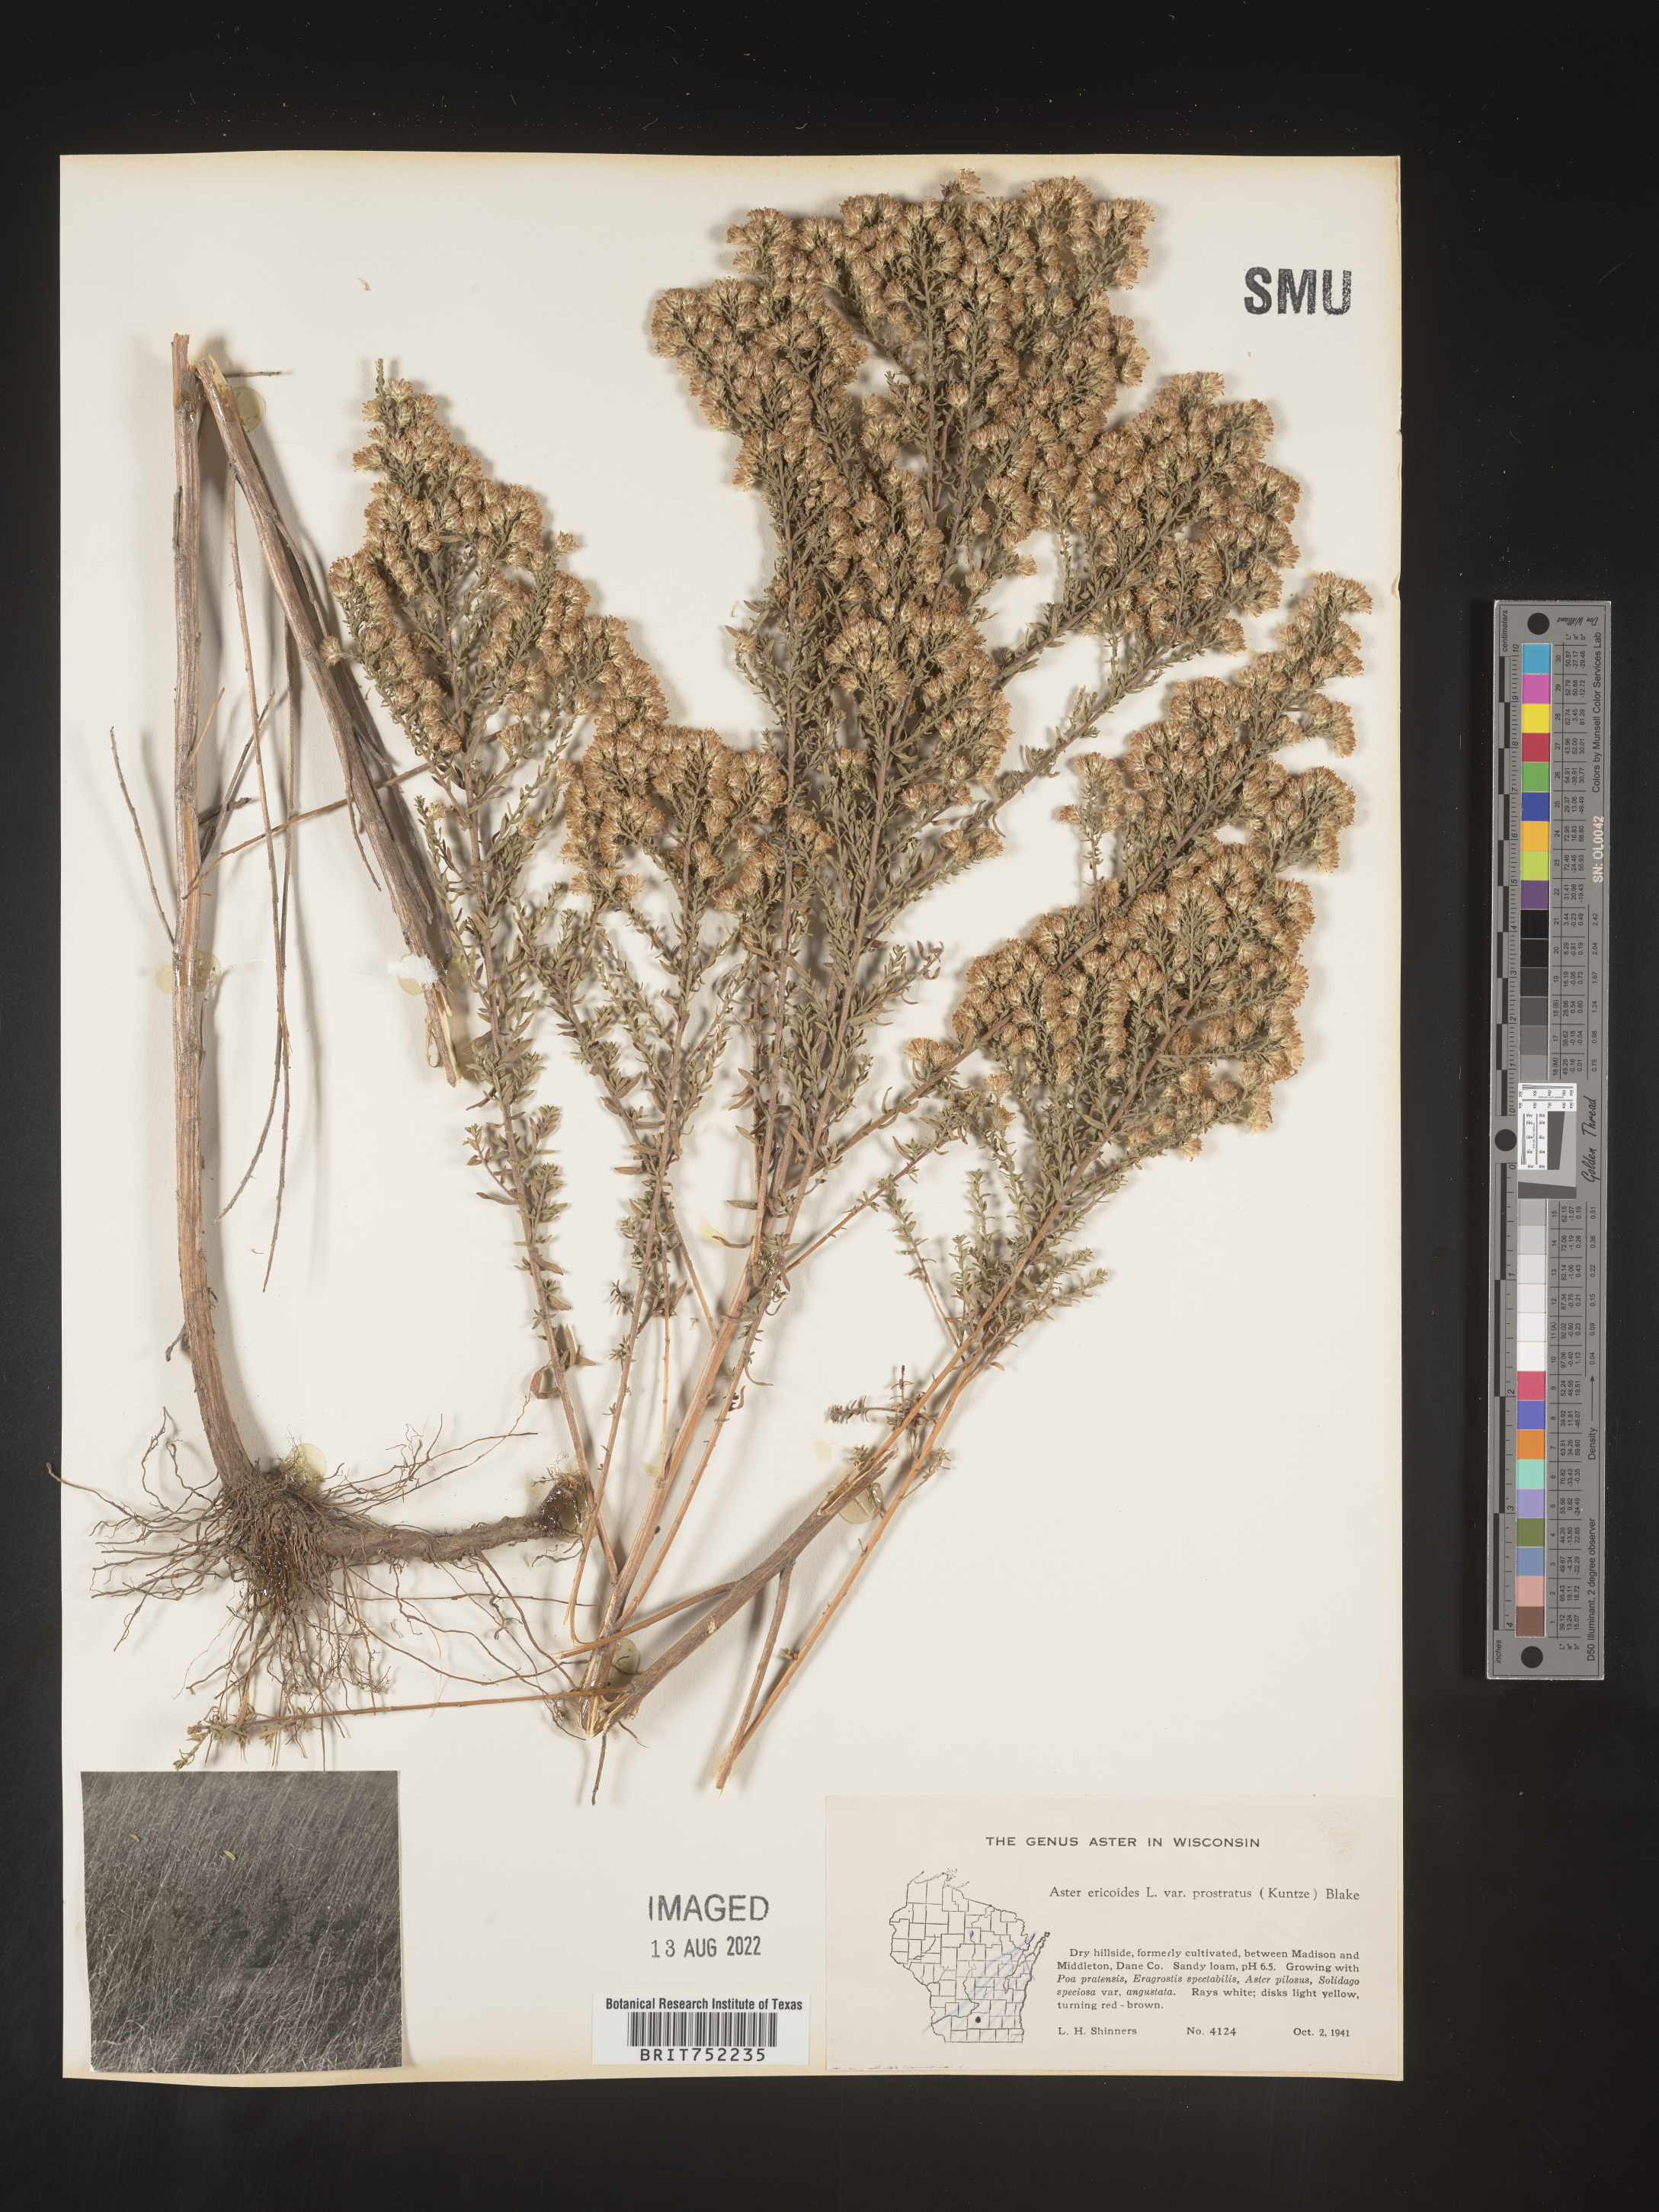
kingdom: Plantae
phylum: Tracheophyta
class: Magnoliopsida
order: Asterales
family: Asteraceae
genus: Symphyotrichum
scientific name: Symphyotrichum ericoides
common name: Heath aster
